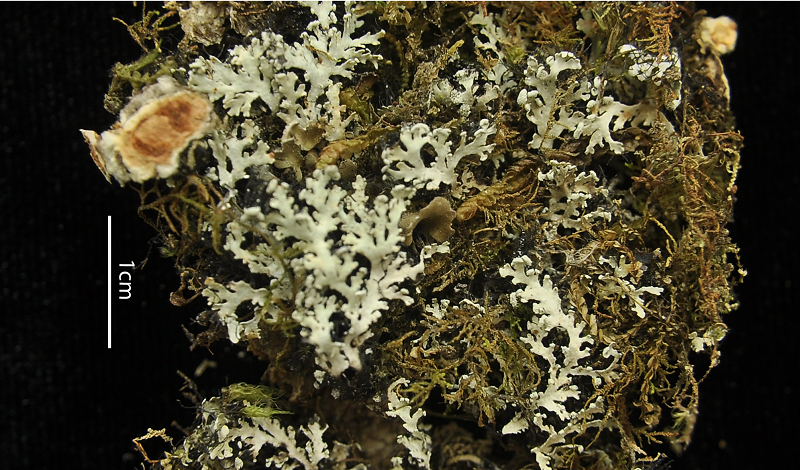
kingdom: Fungi
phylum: Ascomycota
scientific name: Ascomycota
